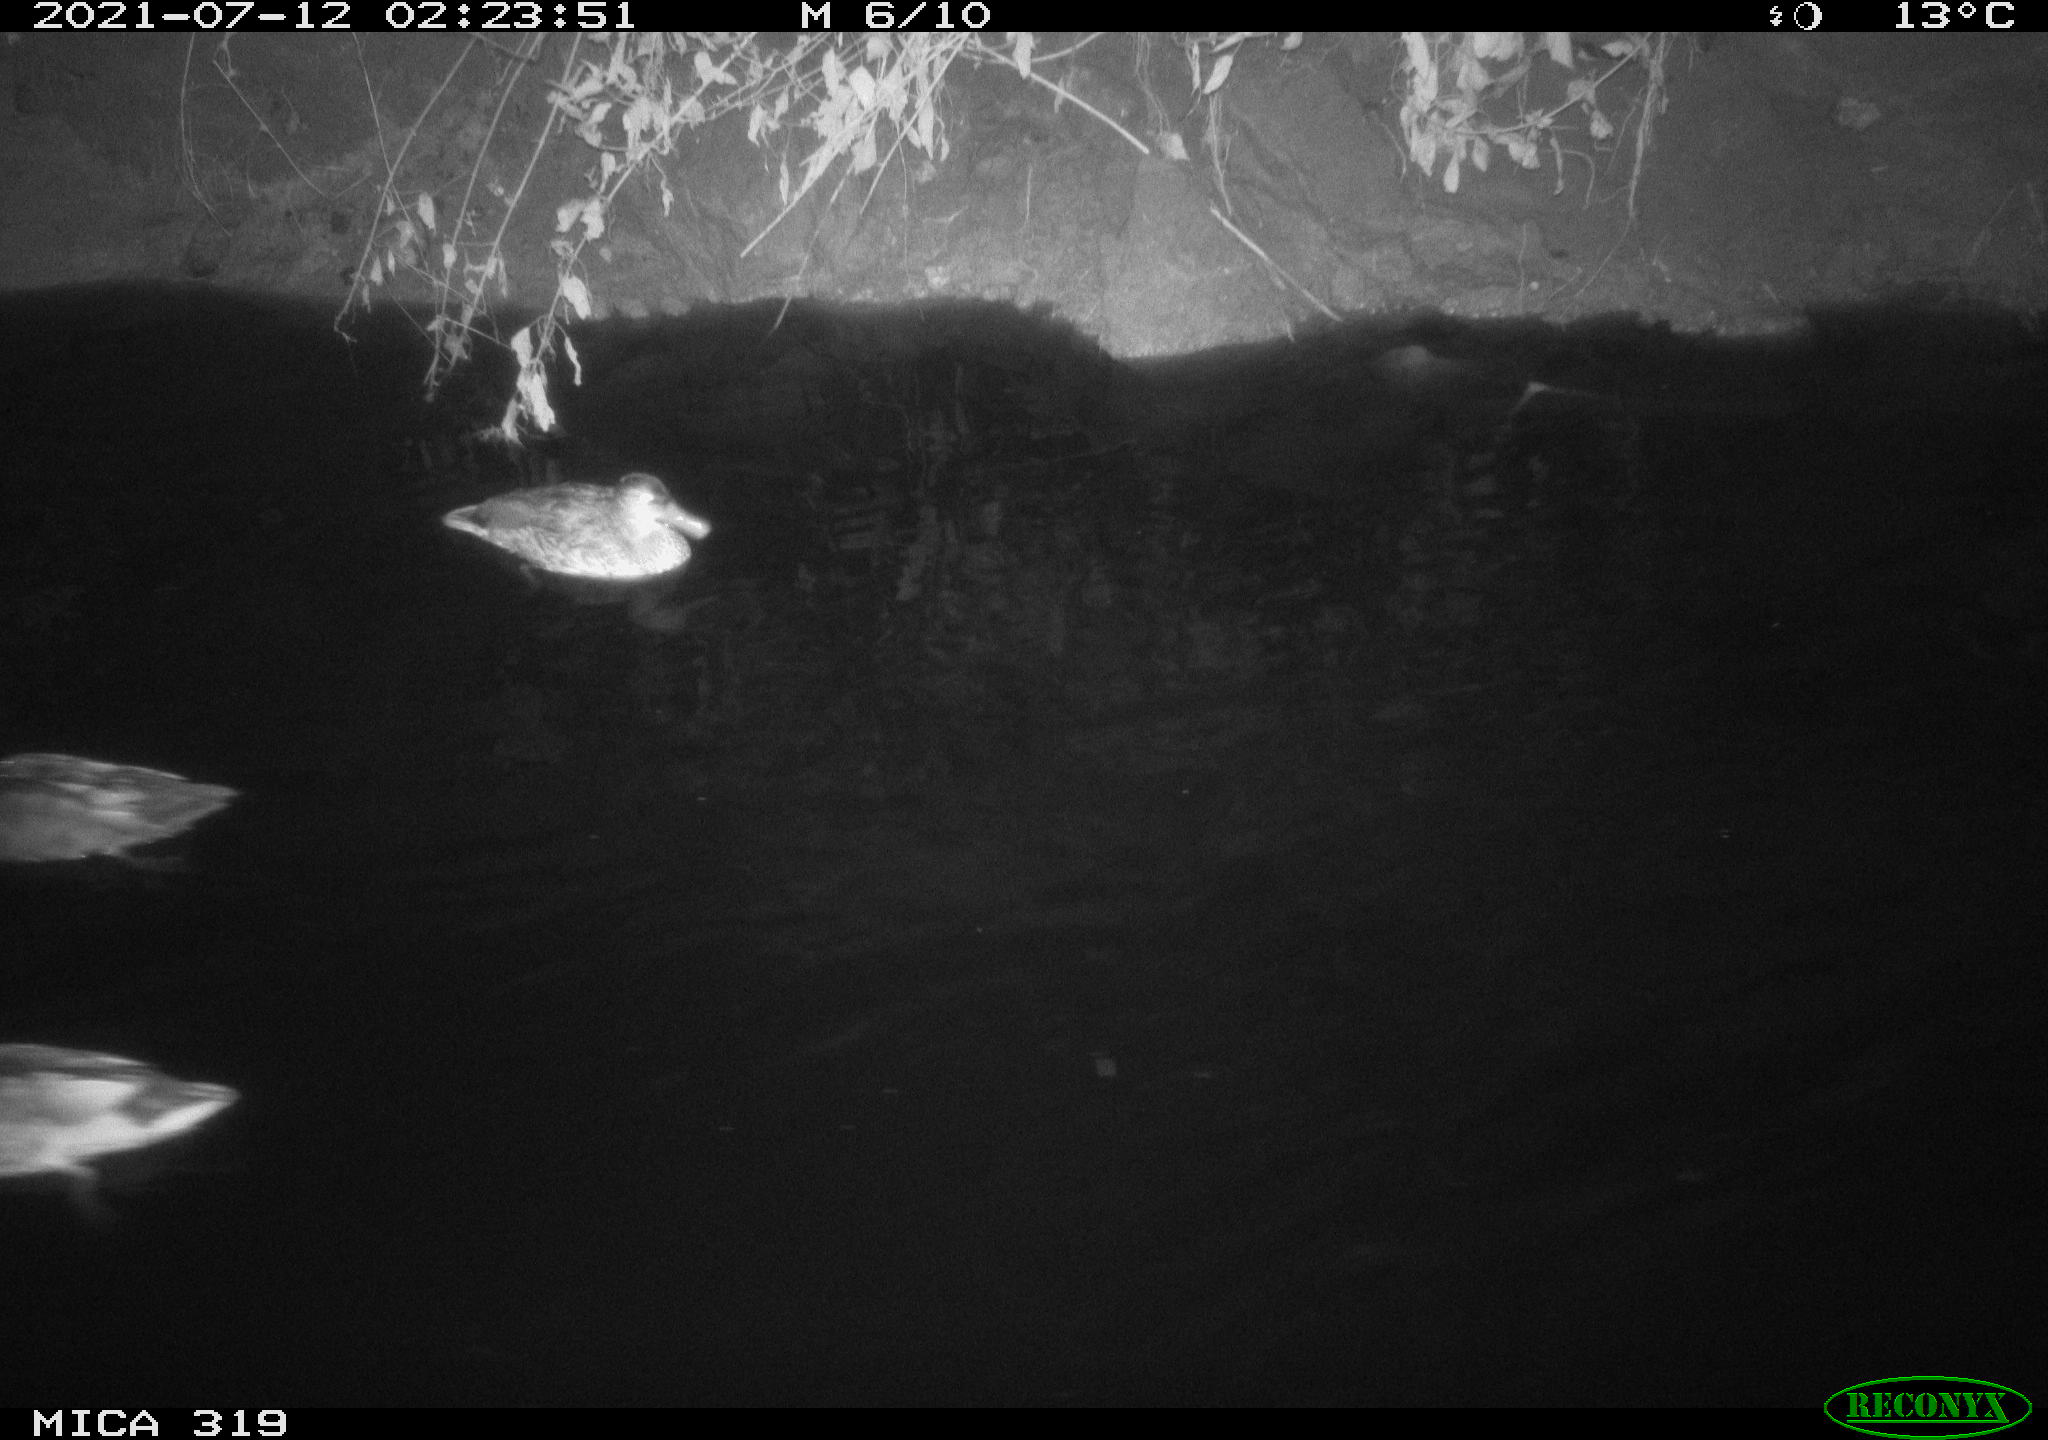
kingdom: Animalia
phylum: Chordata
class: Aves
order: Anseriformes
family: Anatidae
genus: Anas
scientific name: Anas platyrhynchos
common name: Mallard
